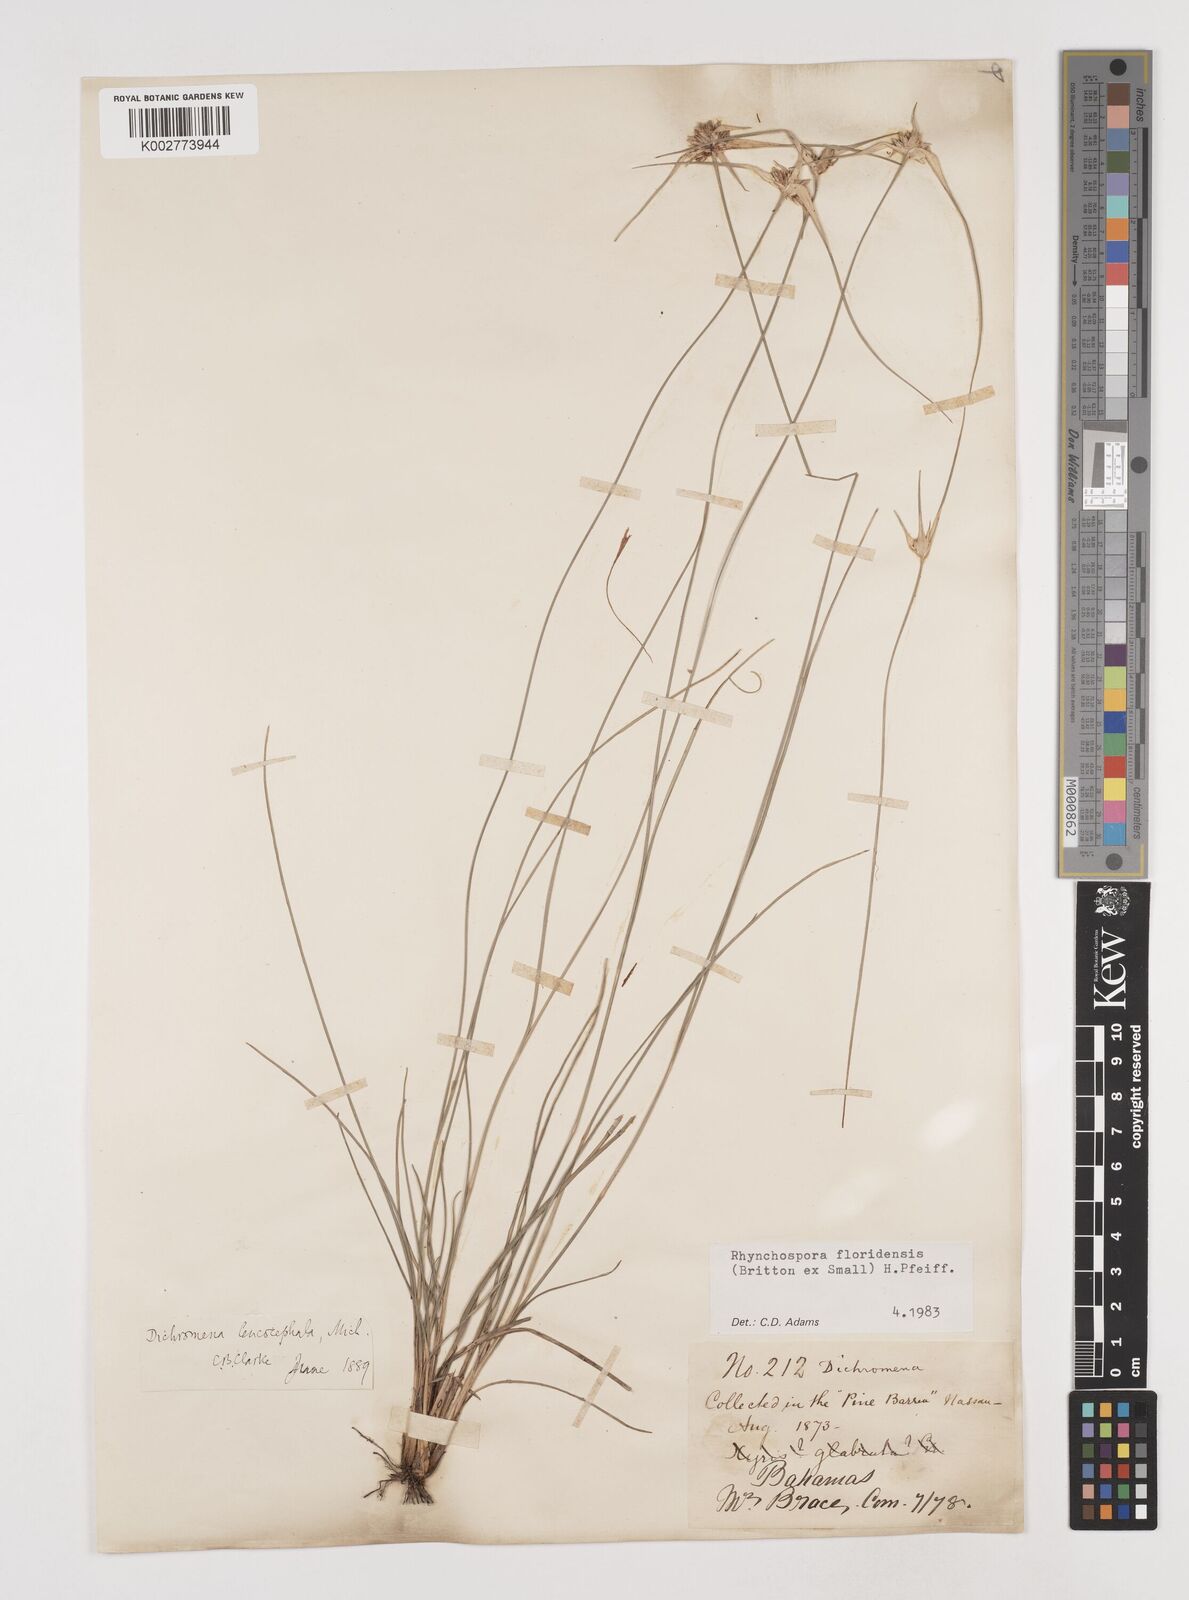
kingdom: Plantae
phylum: Tracheophyta
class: Liliopsida
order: Poales
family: Cyperaceae
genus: Rhynchospora
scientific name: Rhynchospora floridensis
